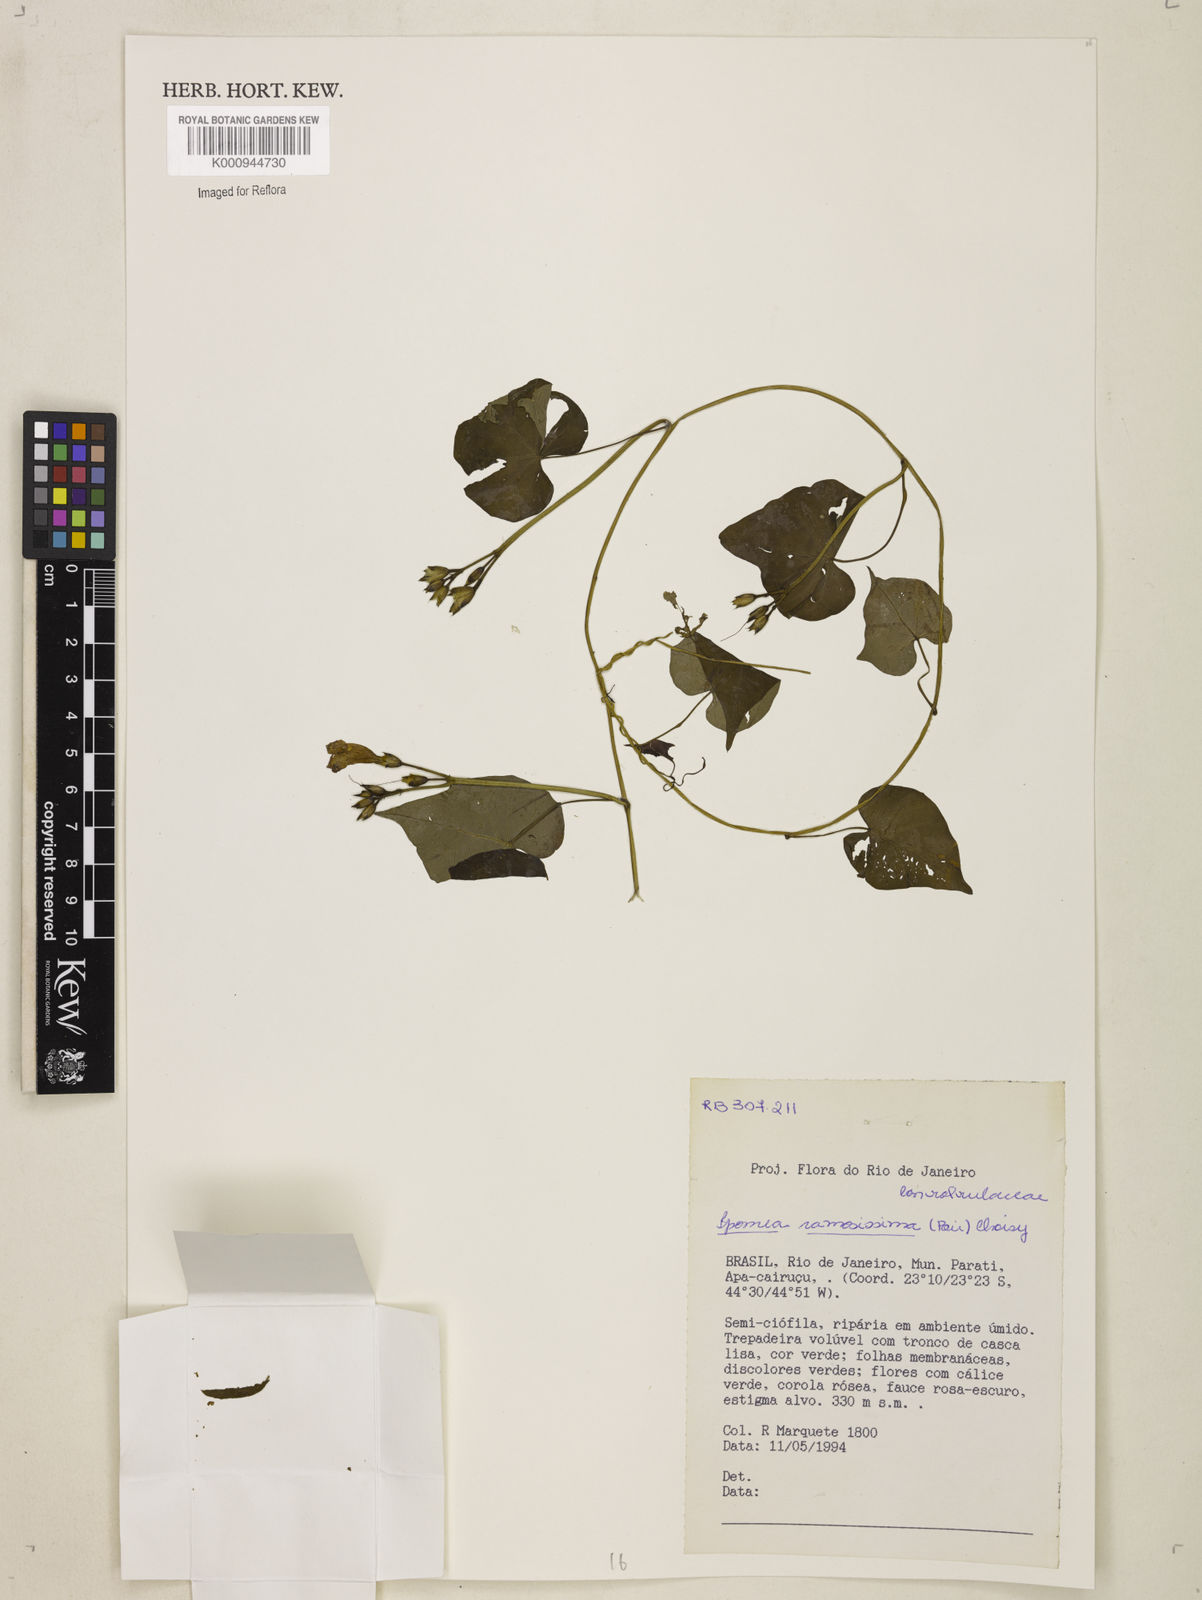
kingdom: Plantae
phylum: Tracheophyta
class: Magnoliopsida
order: Solanales
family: Convolvulaceae
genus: Ipomoea
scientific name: Ipomoea ramosissima
